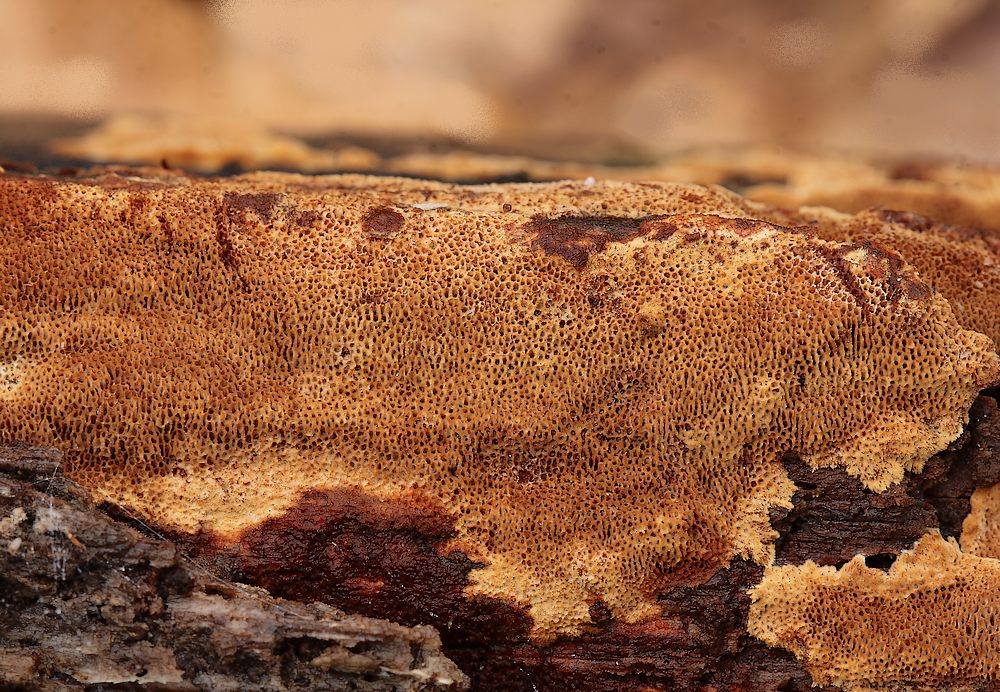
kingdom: Fungi
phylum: Basidiomycota
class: Agaricomycetes
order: Hymenochaetales
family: Hymenochaetaceae
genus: Fuscoporia
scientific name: Fuscoporia ferrea
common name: skorpe-ildporesvamp
